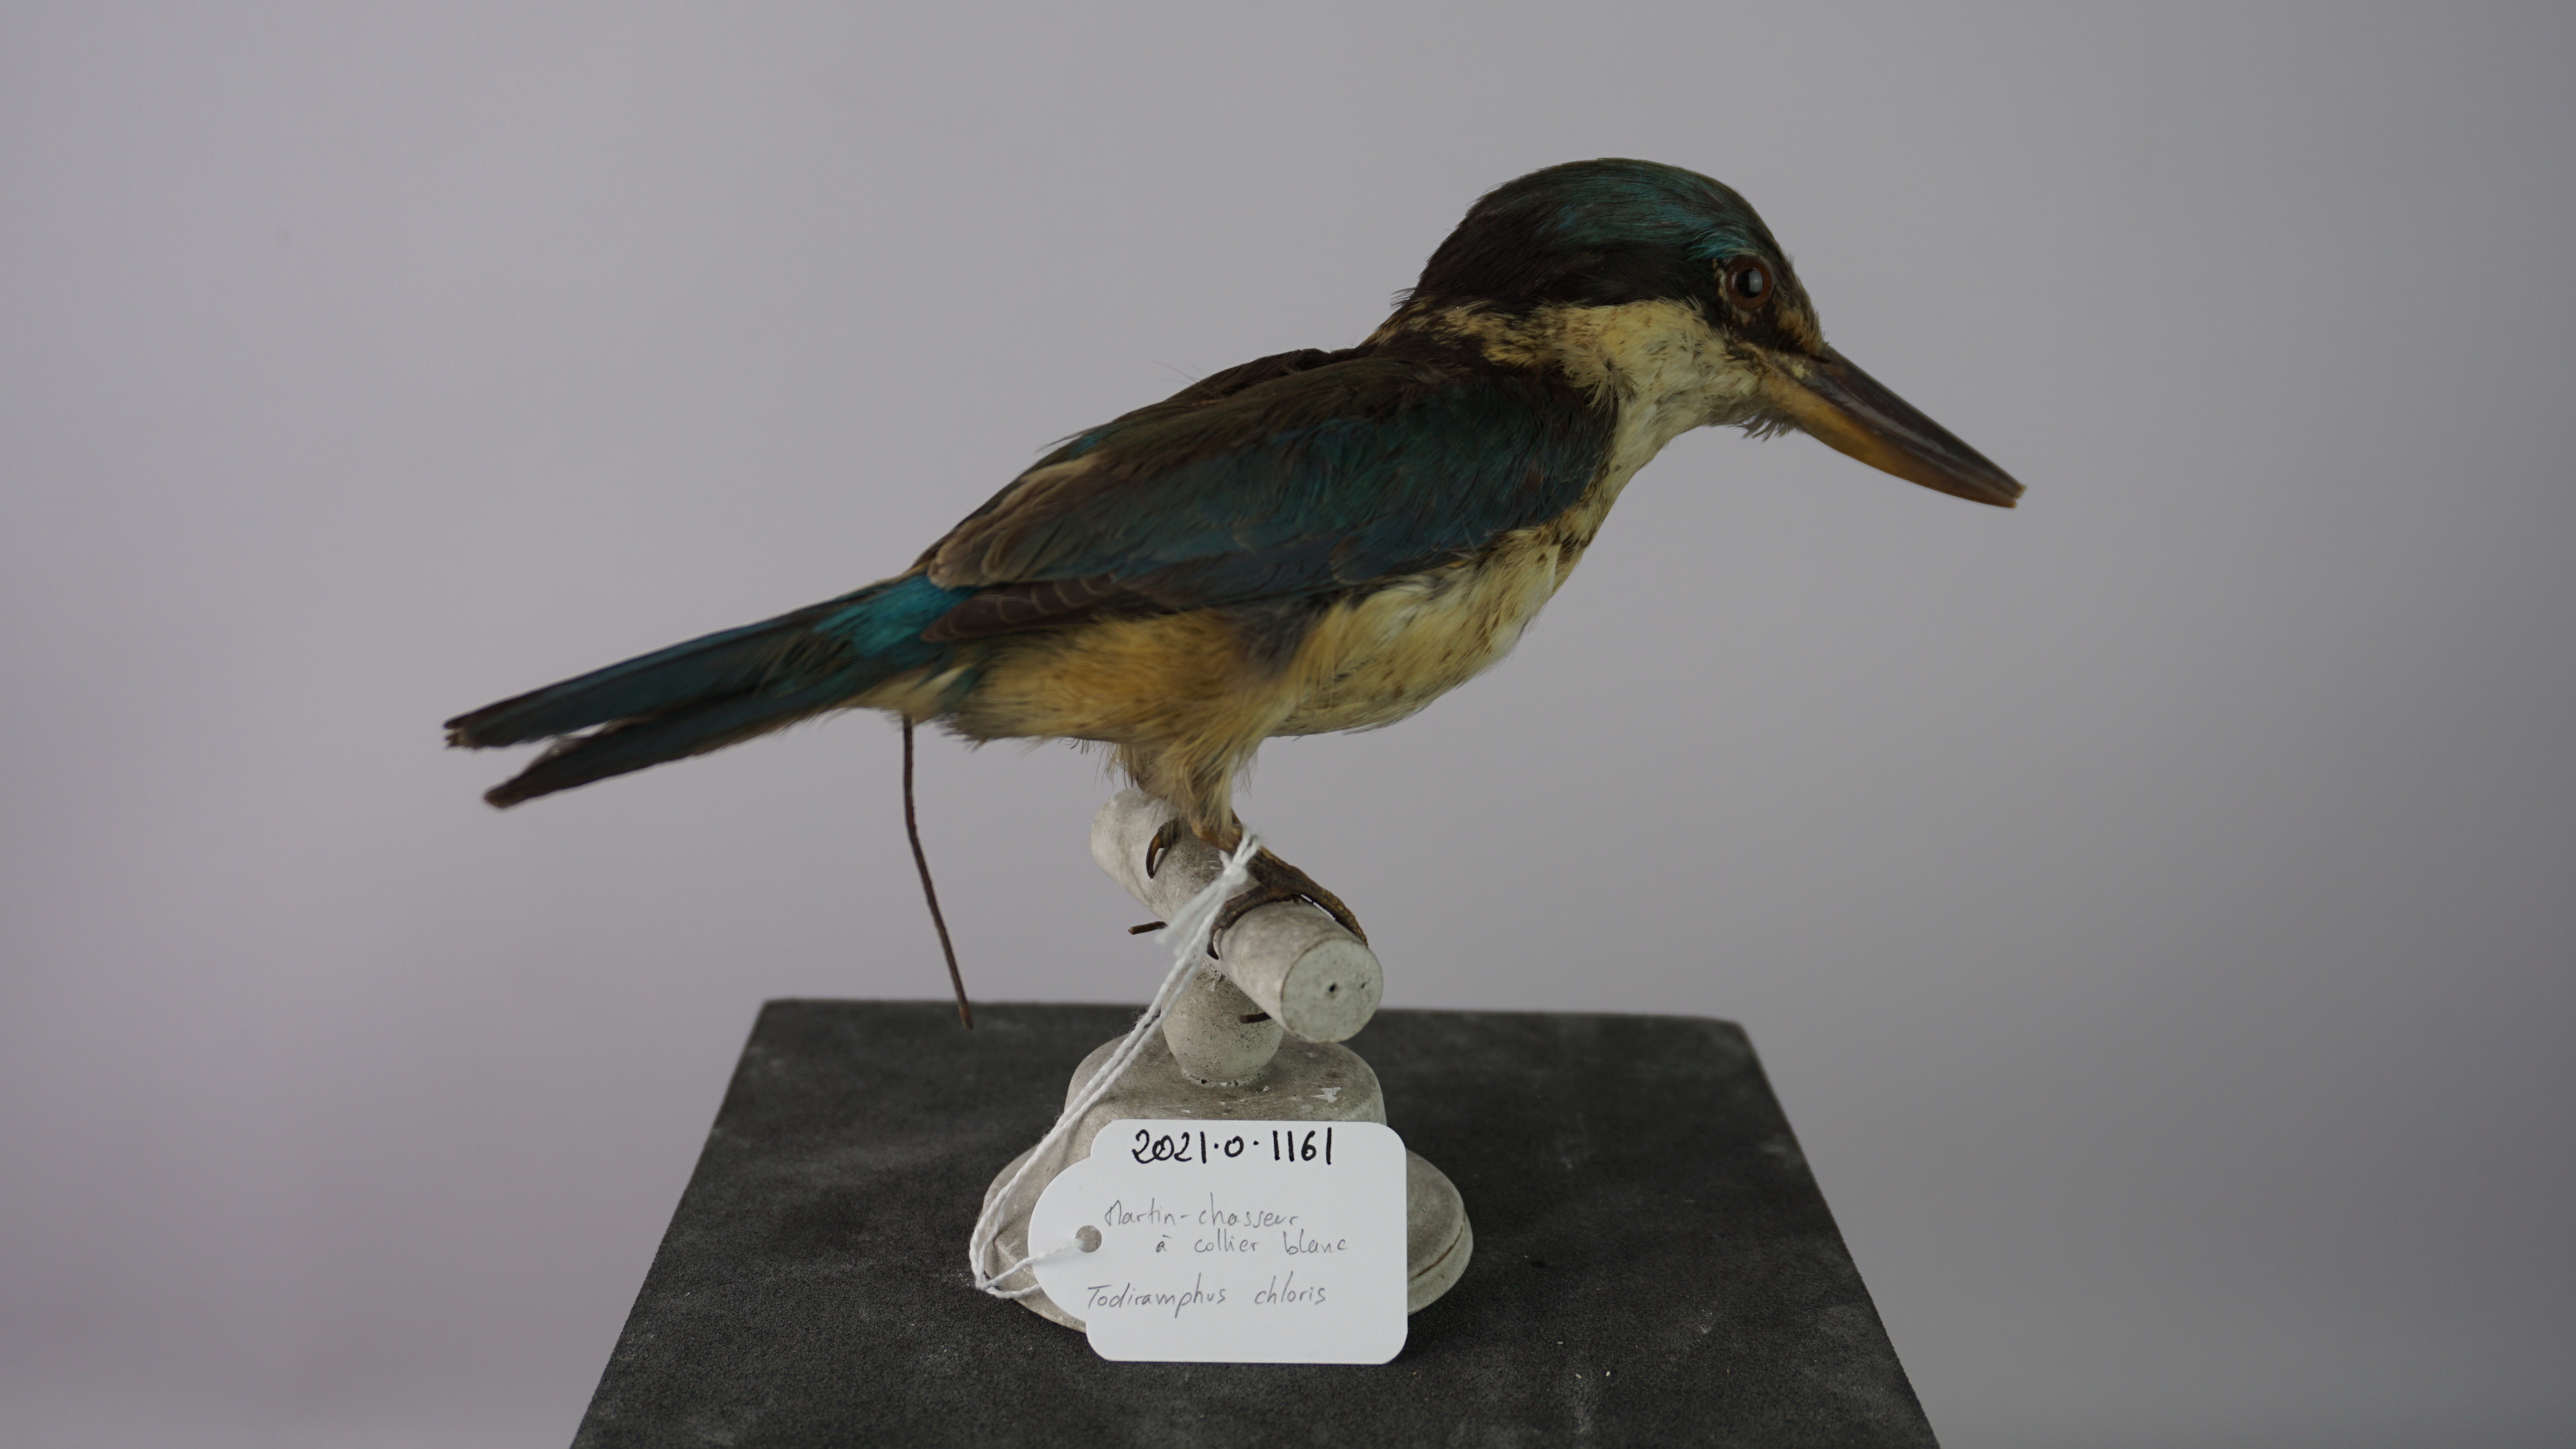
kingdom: Animalia
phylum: Chordata
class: Aves
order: Coraciiformes
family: Alcedinidae
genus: Todiramphus
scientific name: Todiramphus chloris
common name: Collared kingfisher
